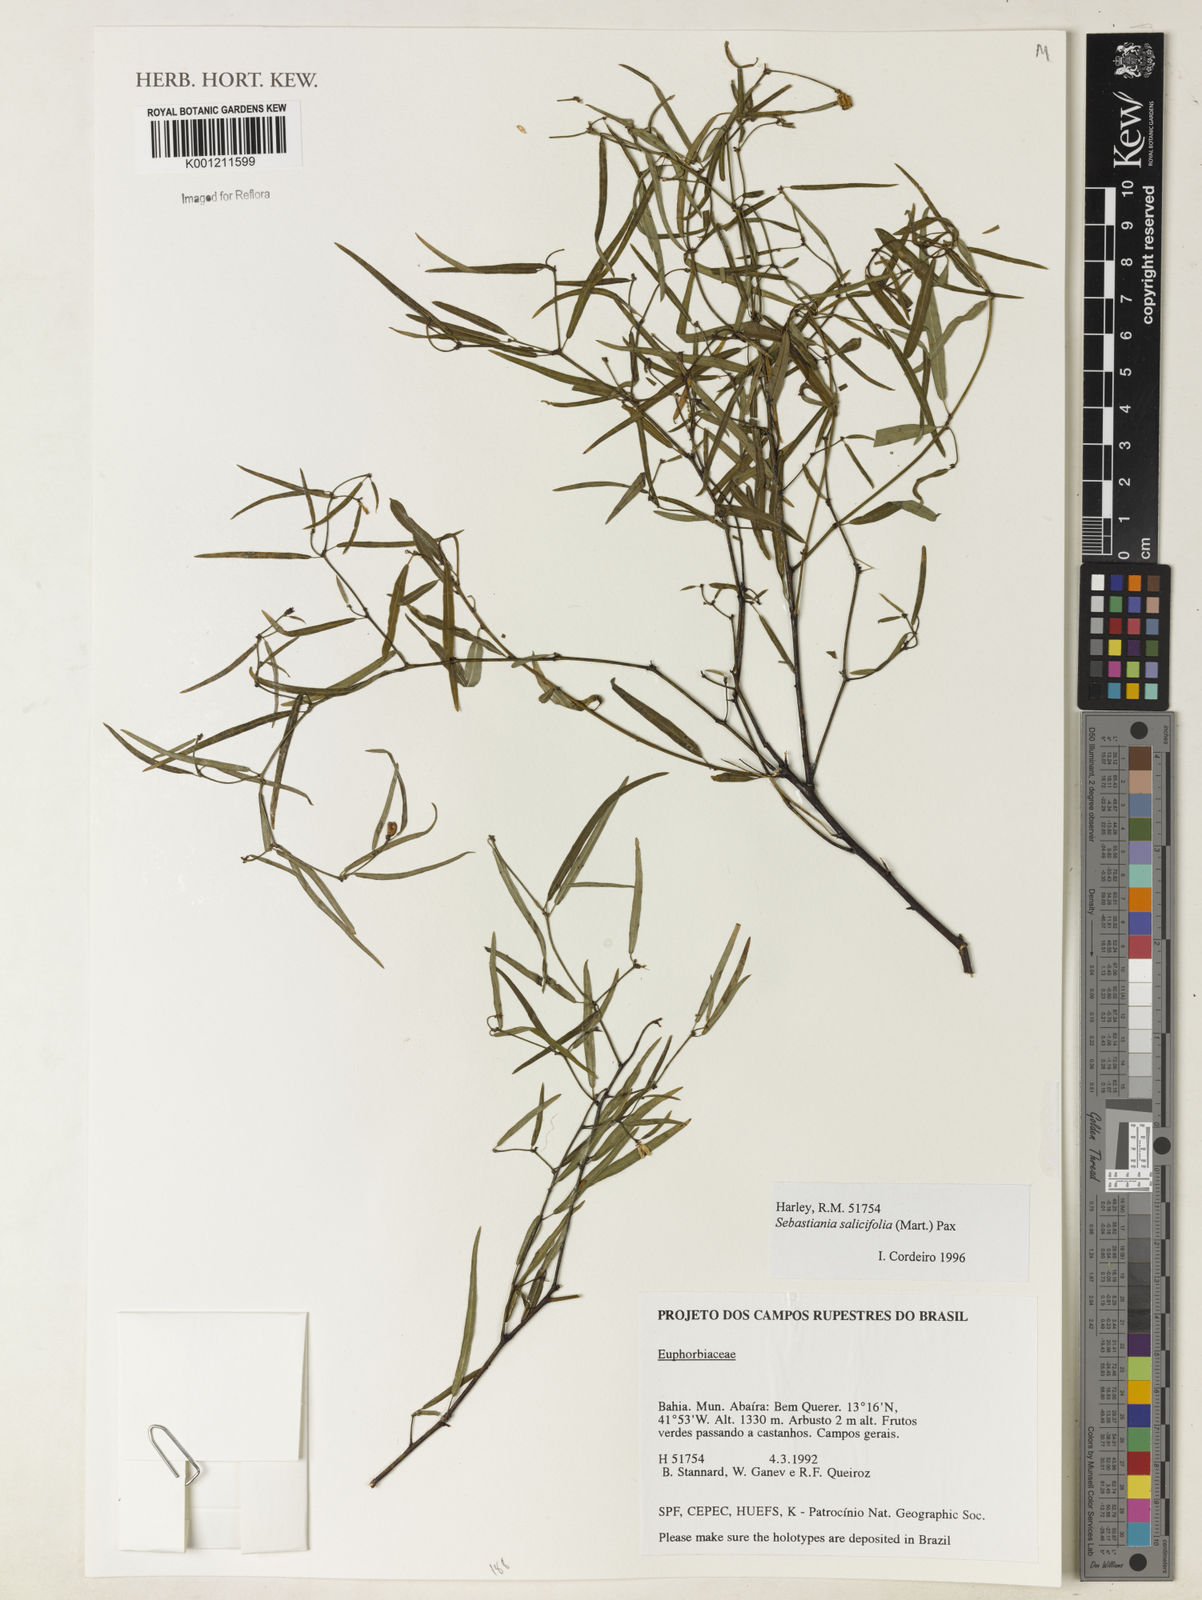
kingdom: Plantae
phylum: Tracheophyta
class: Magnoliopsida
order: Malpighiales
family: Euphorbiaceae
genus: Microstachys
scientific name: Microstachys
